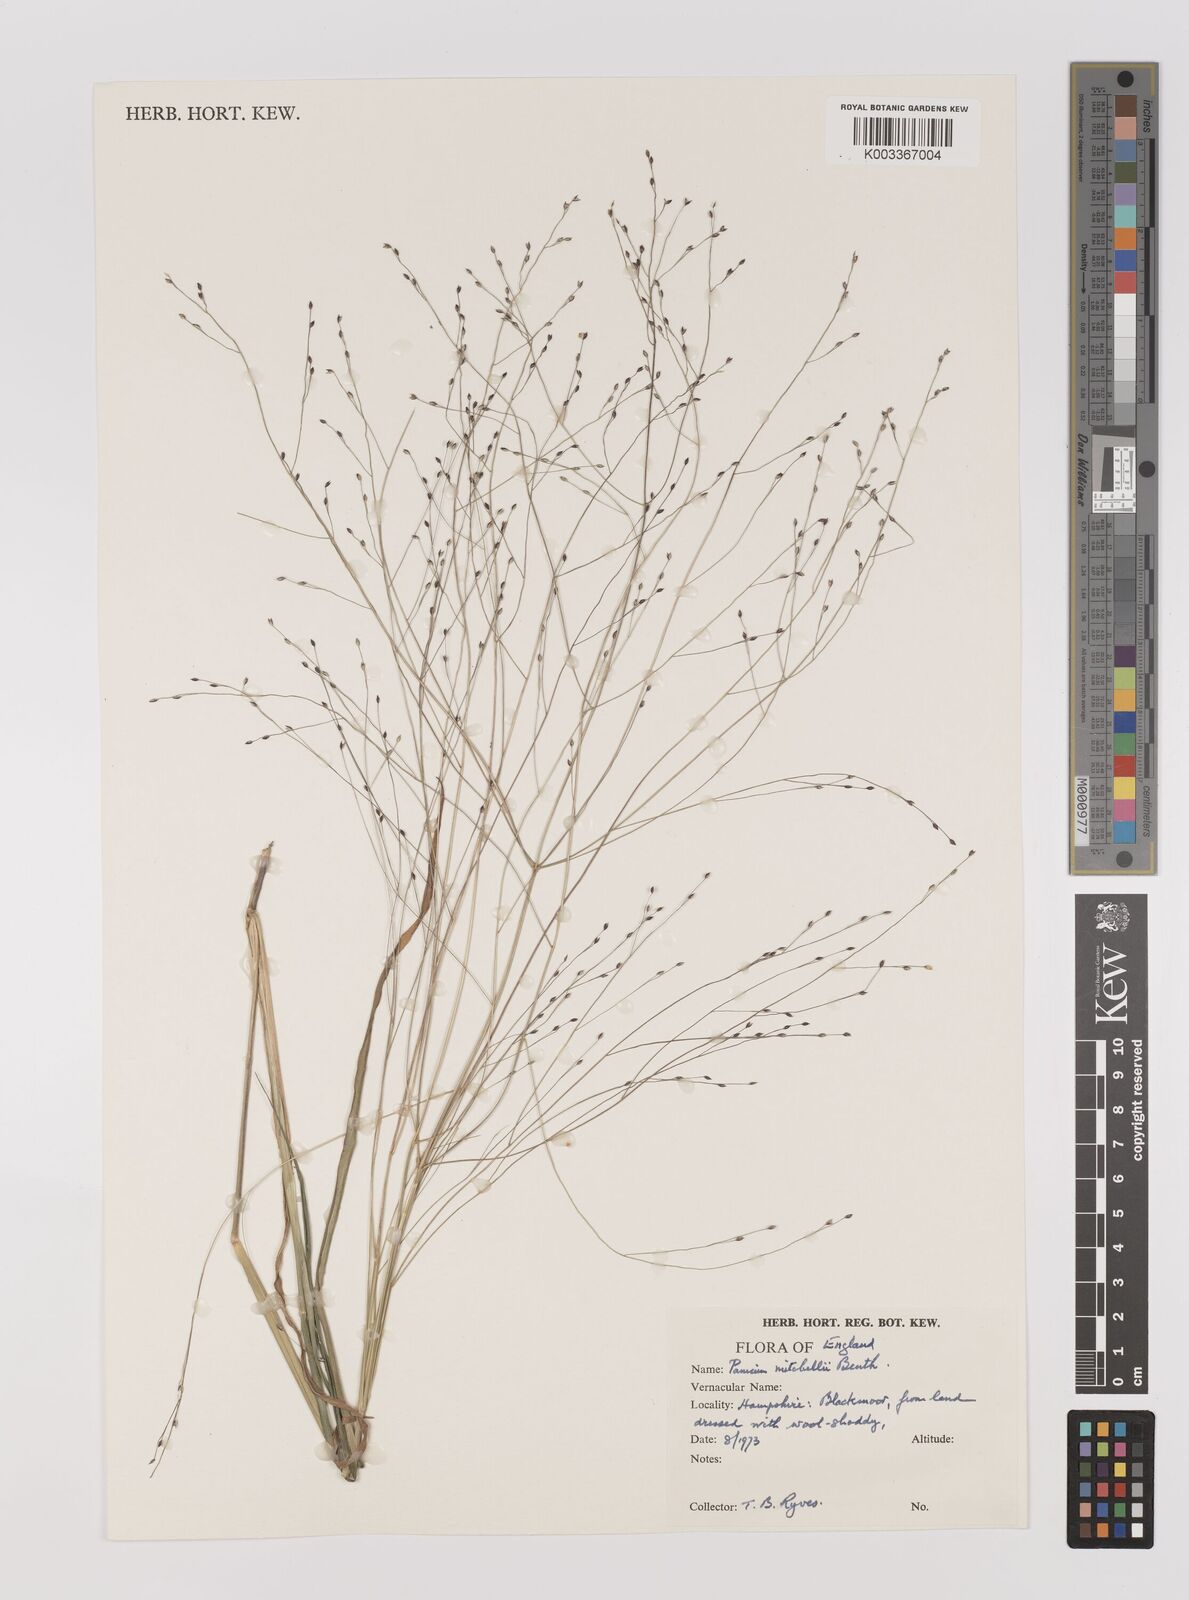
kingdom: Plantae
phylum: Tracheophyta
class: Liliopsida
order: Poales
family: Poaceae
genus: Panicum
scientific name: Panicum mitchellii
